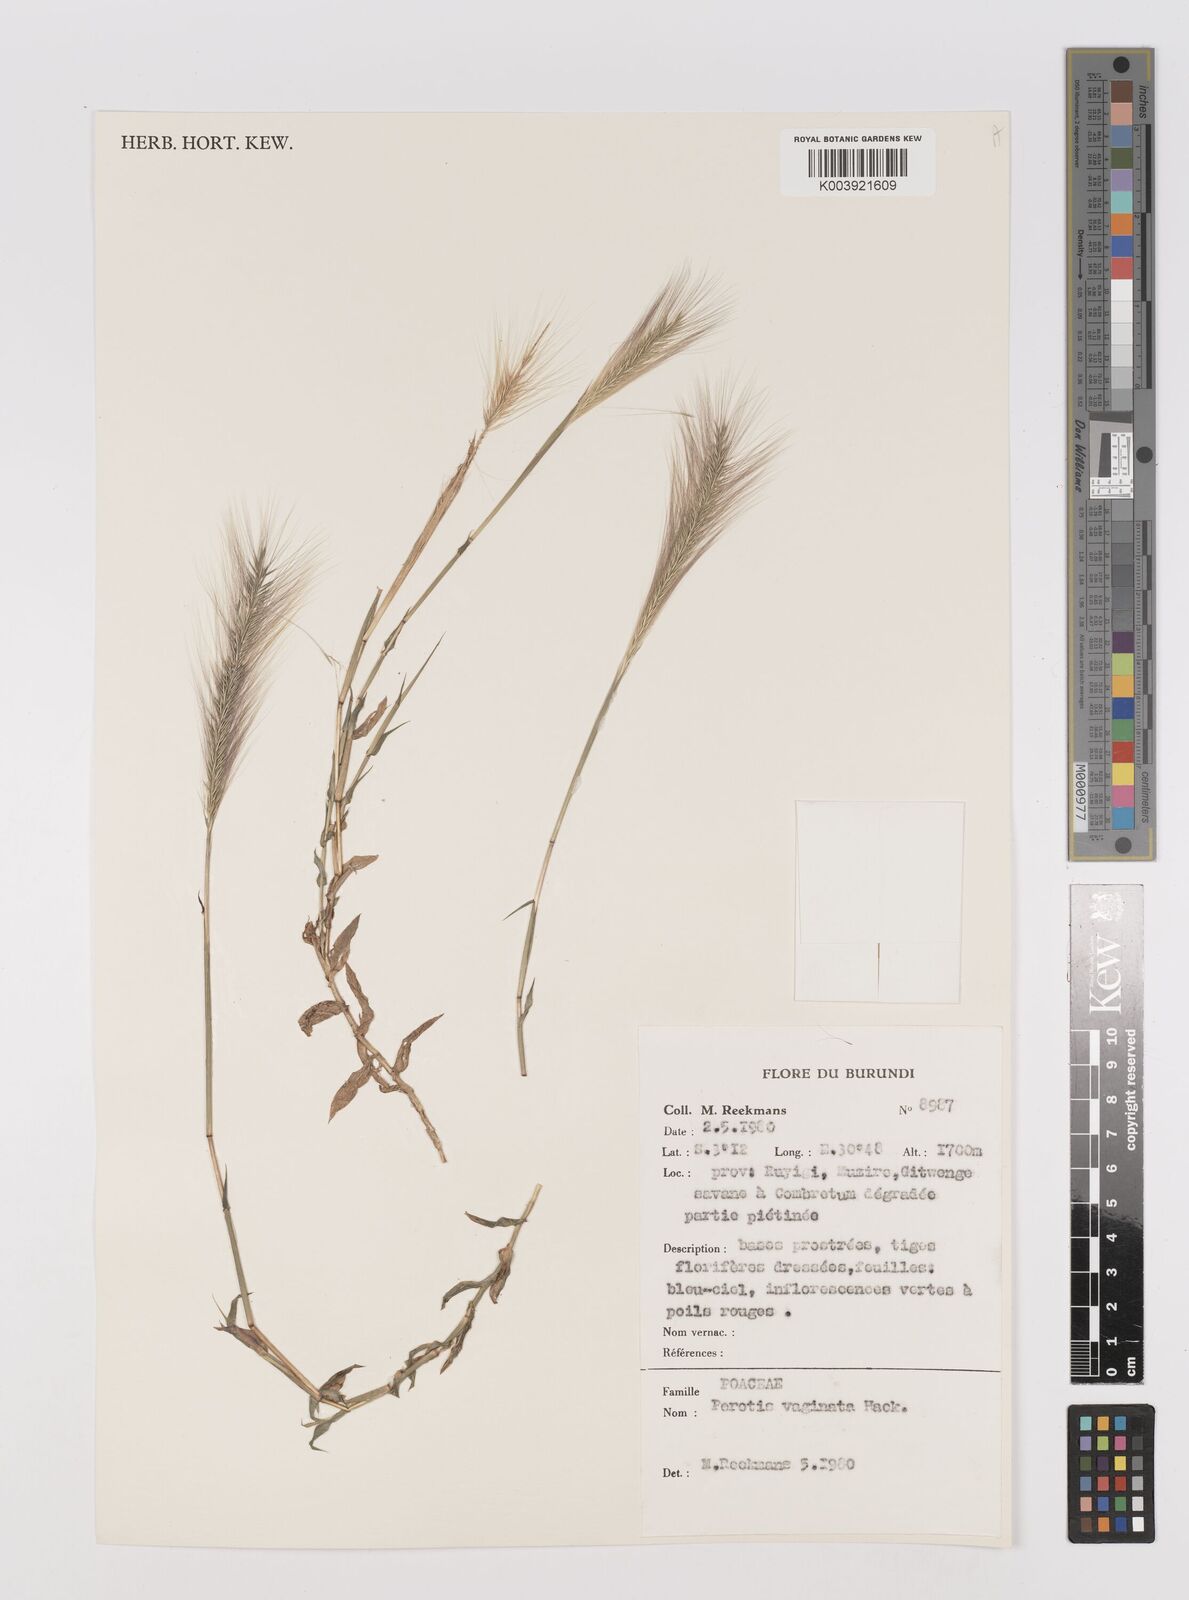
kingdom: Plantae
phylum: Tracheophyta
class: Liliopsida
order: Poales
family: Poaceae
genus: Perotis
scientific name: Perotis vaginata
